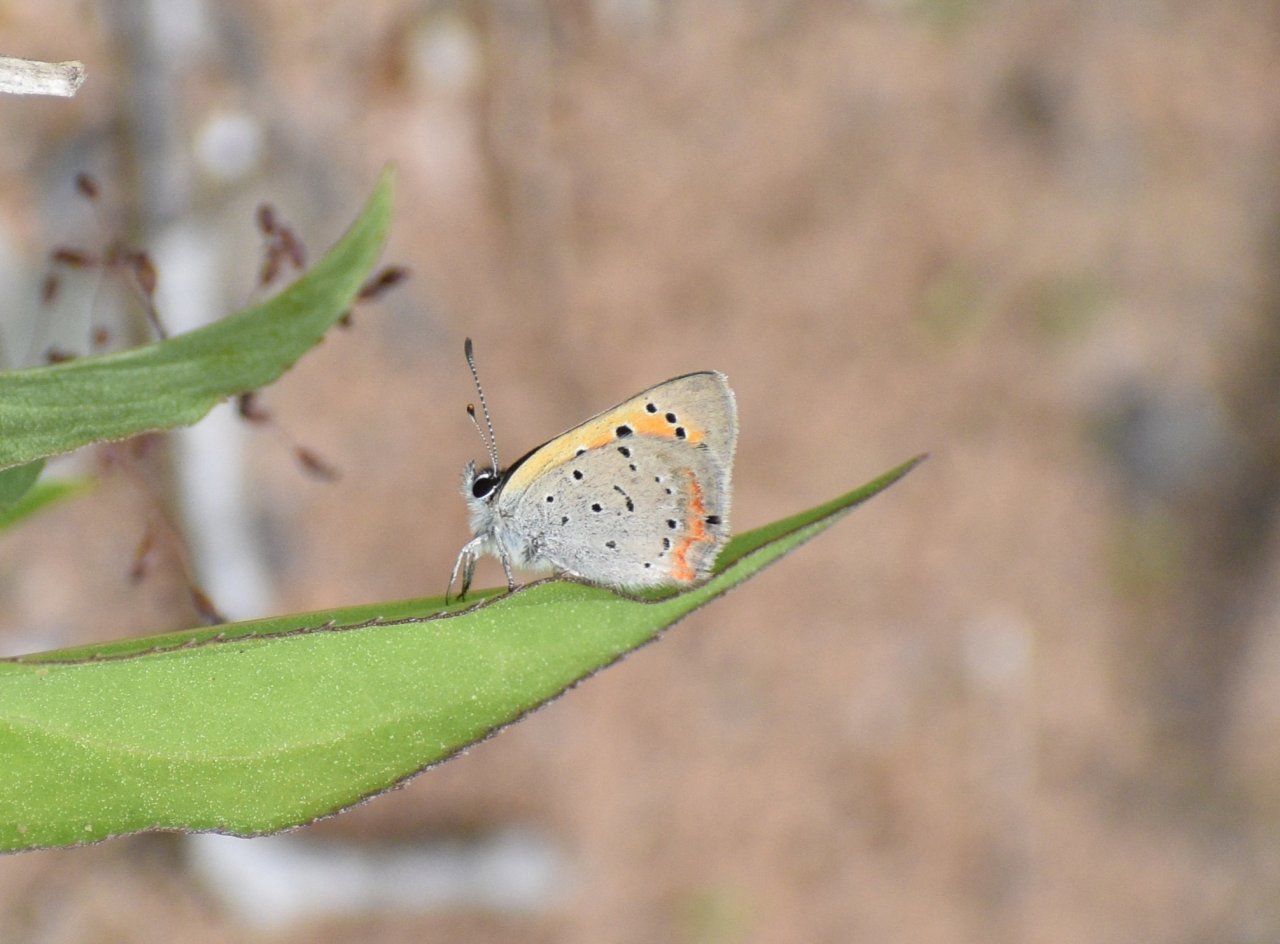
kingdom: Animalia
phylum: Arthropoda
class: Insecta
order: Lepidoptera
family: Lycaenidae
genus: Lycaena
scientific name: Lycaena phlaeas
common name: American Copper
